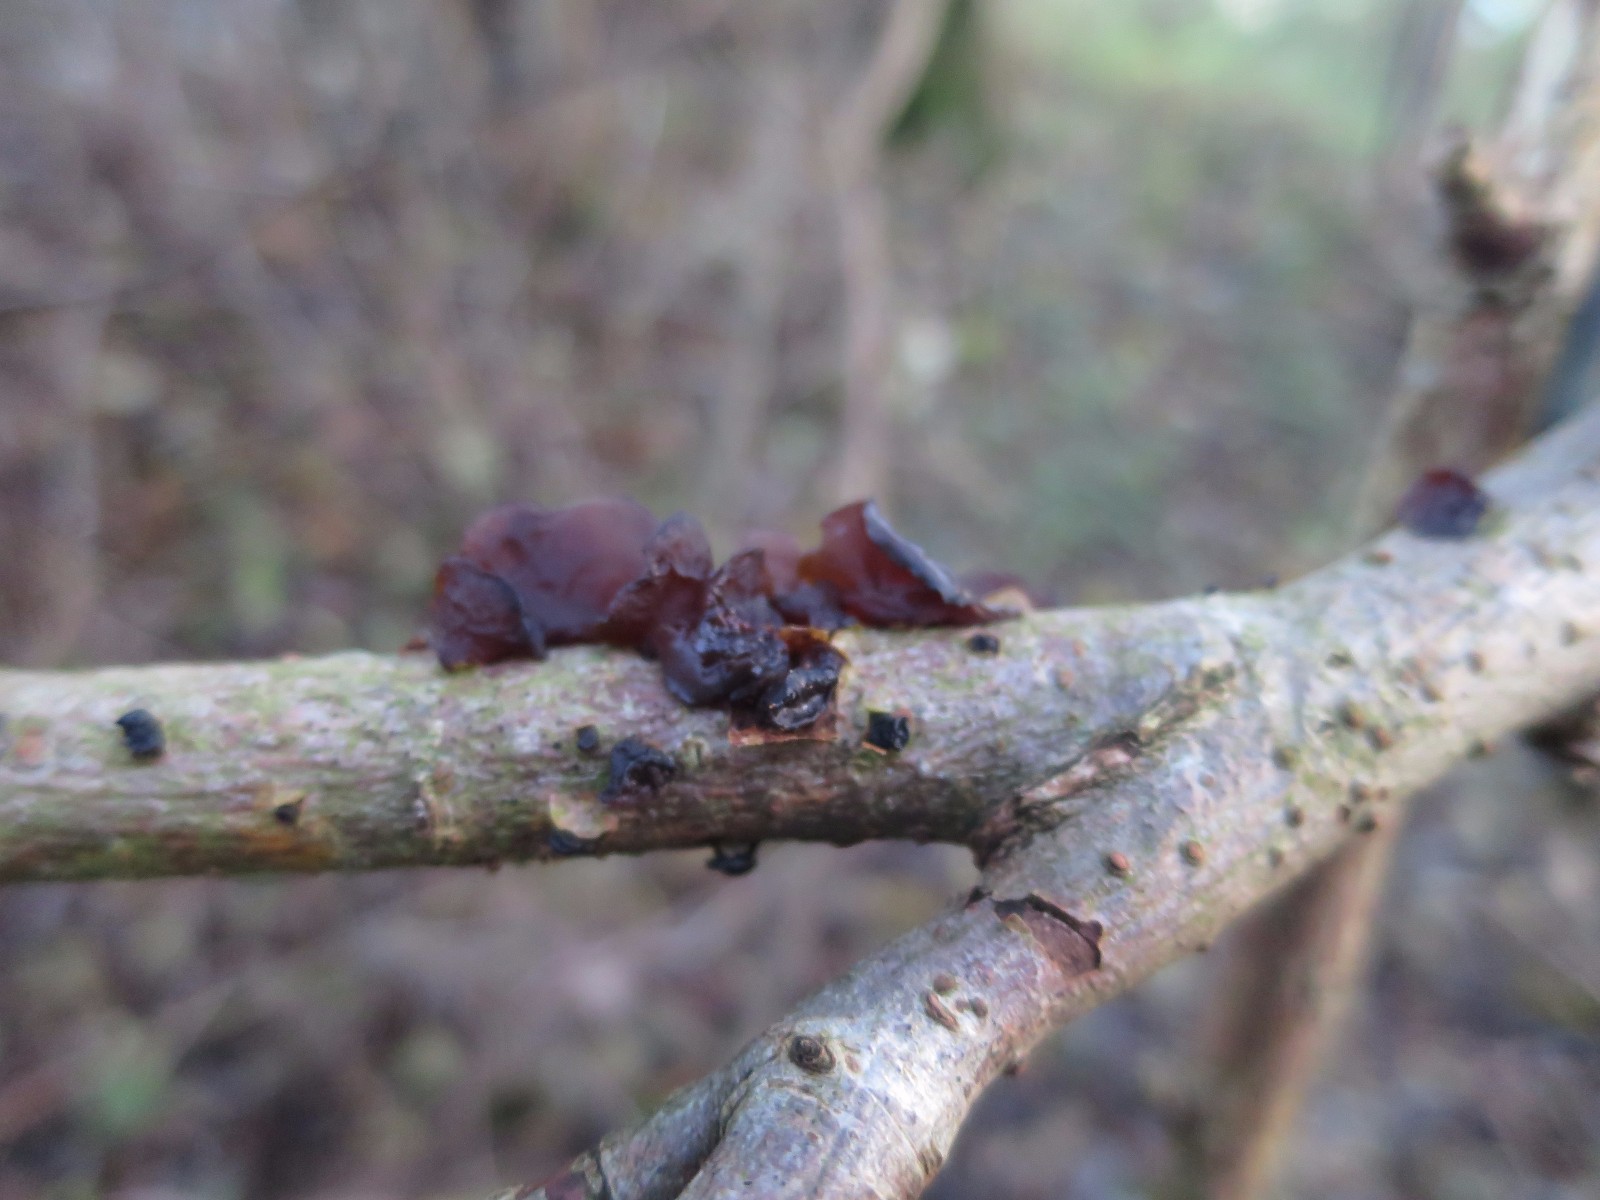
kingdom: Fungi
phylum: Basidiomycota
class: Agaricomycetes
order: Auriculariales
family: Auriculariaceae
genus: Exidia
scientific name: Exidia recisa
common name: pile-bævretop
